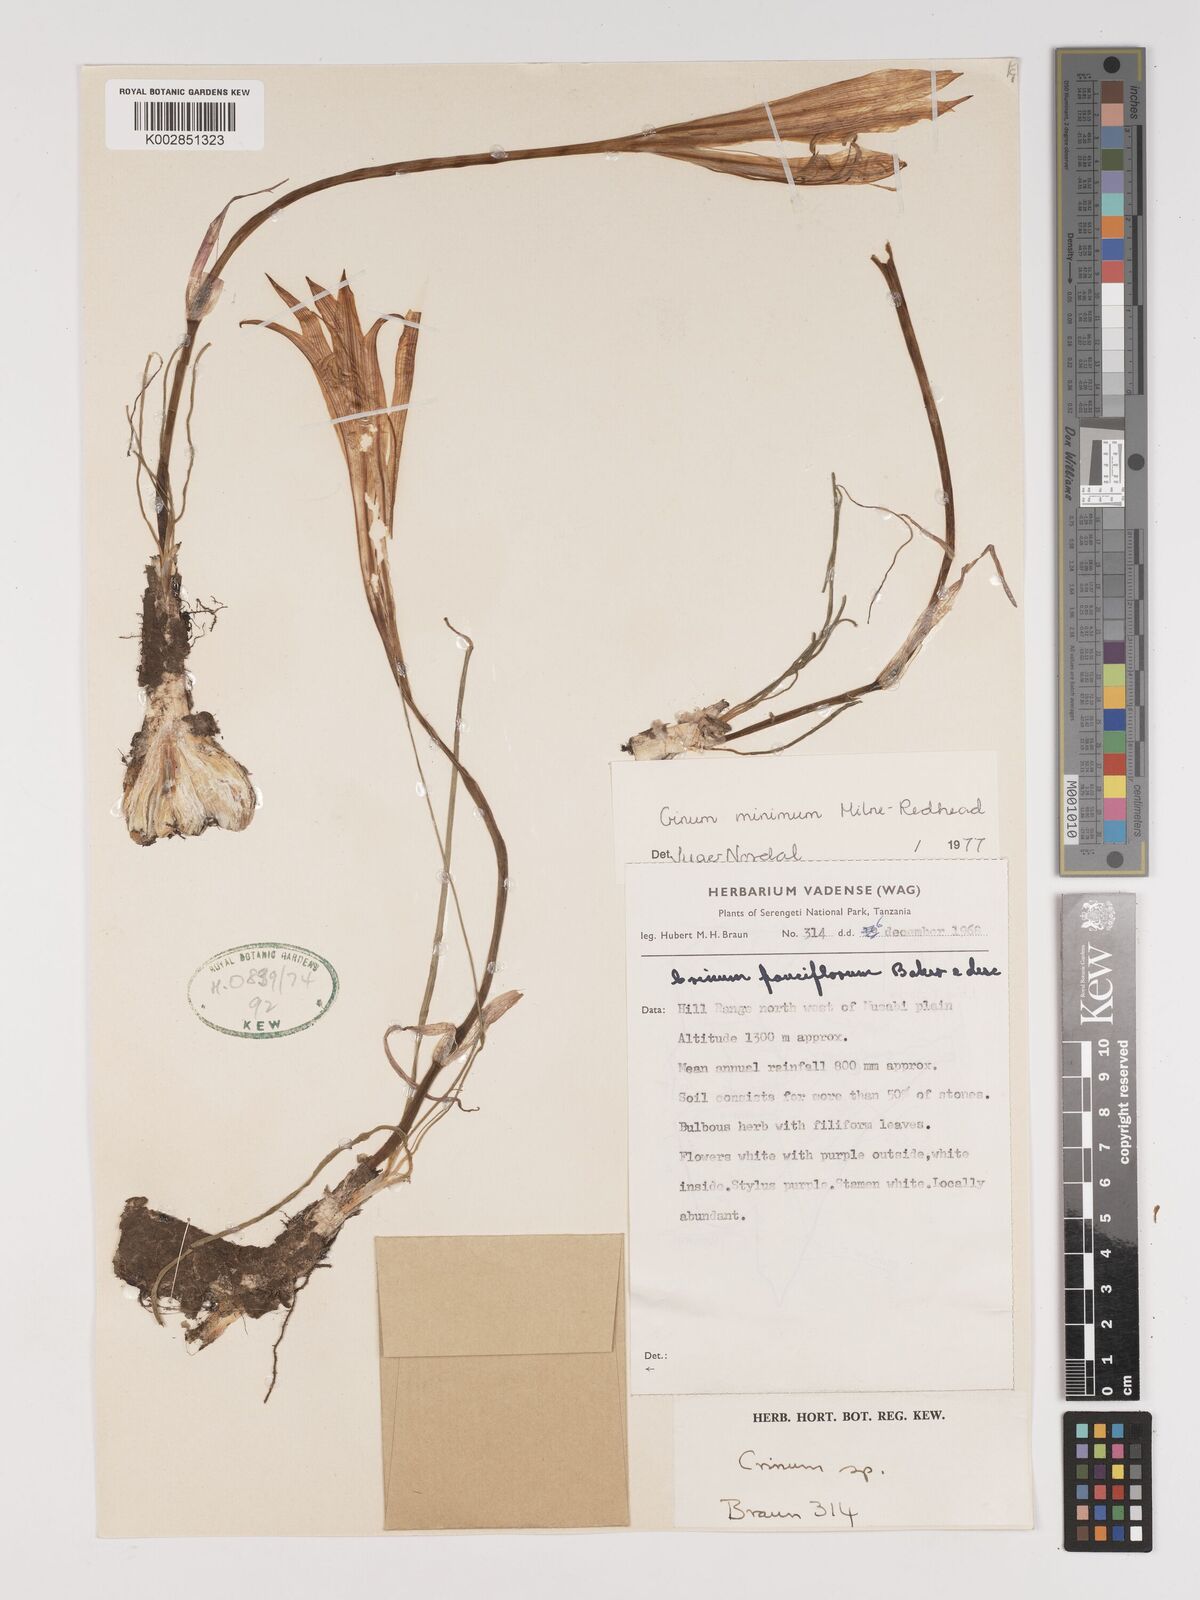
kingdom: Plantae
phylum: Tracheophyta
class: Liliopsida
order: Asparagales
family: Amaryllidaceae
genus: Crinum
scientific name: Crinum minimum
